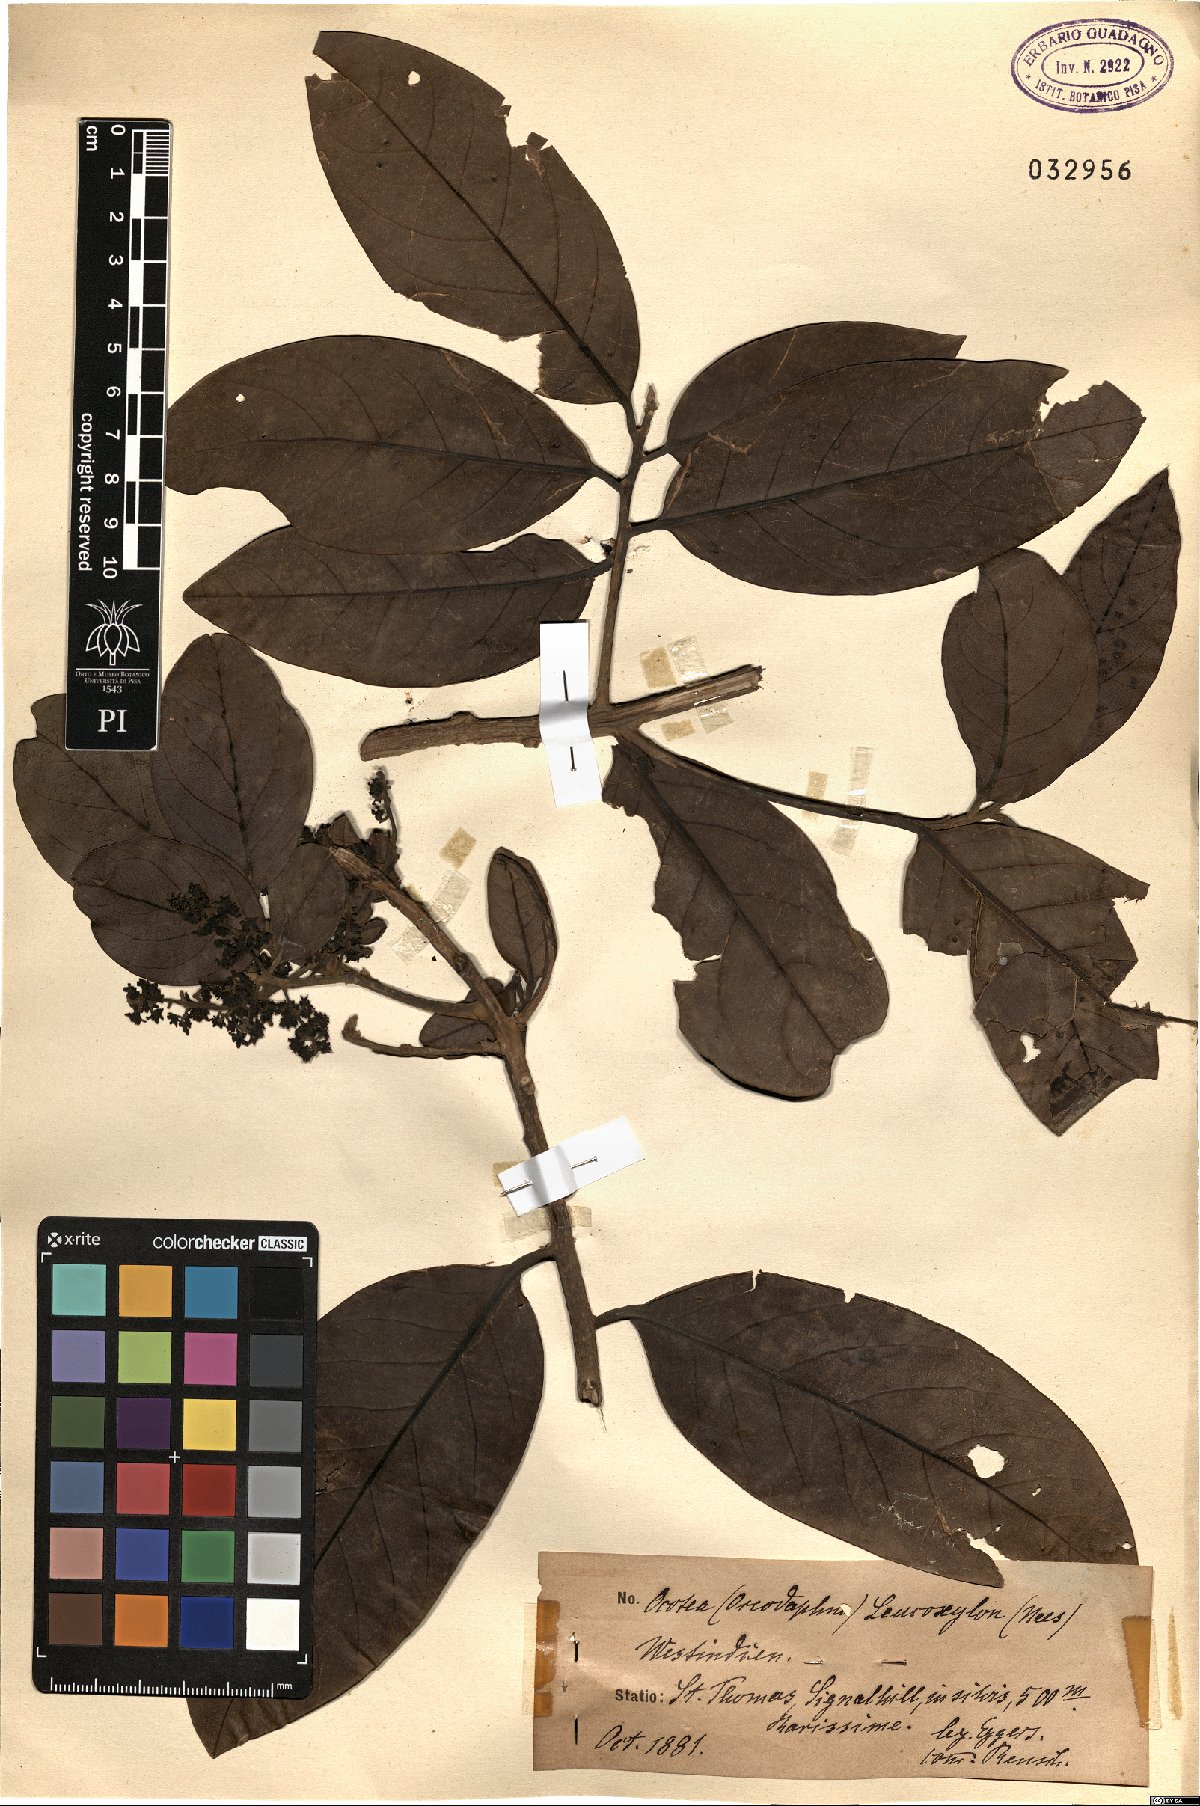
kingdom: Plantae
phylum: Tracheophyta
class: Magnoliopsida
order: Laurales
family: Lauraceae
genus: Ocotea
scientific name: Ocotea leucoxylon
